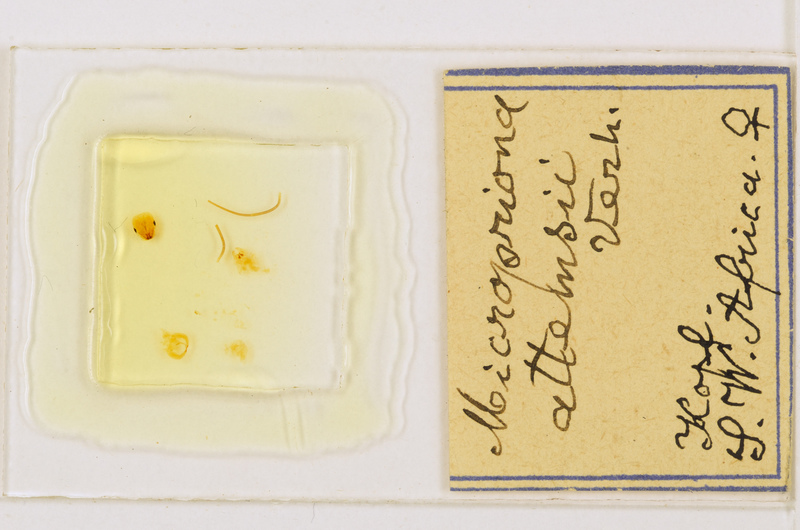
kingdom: Animalia
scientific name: Animalia
